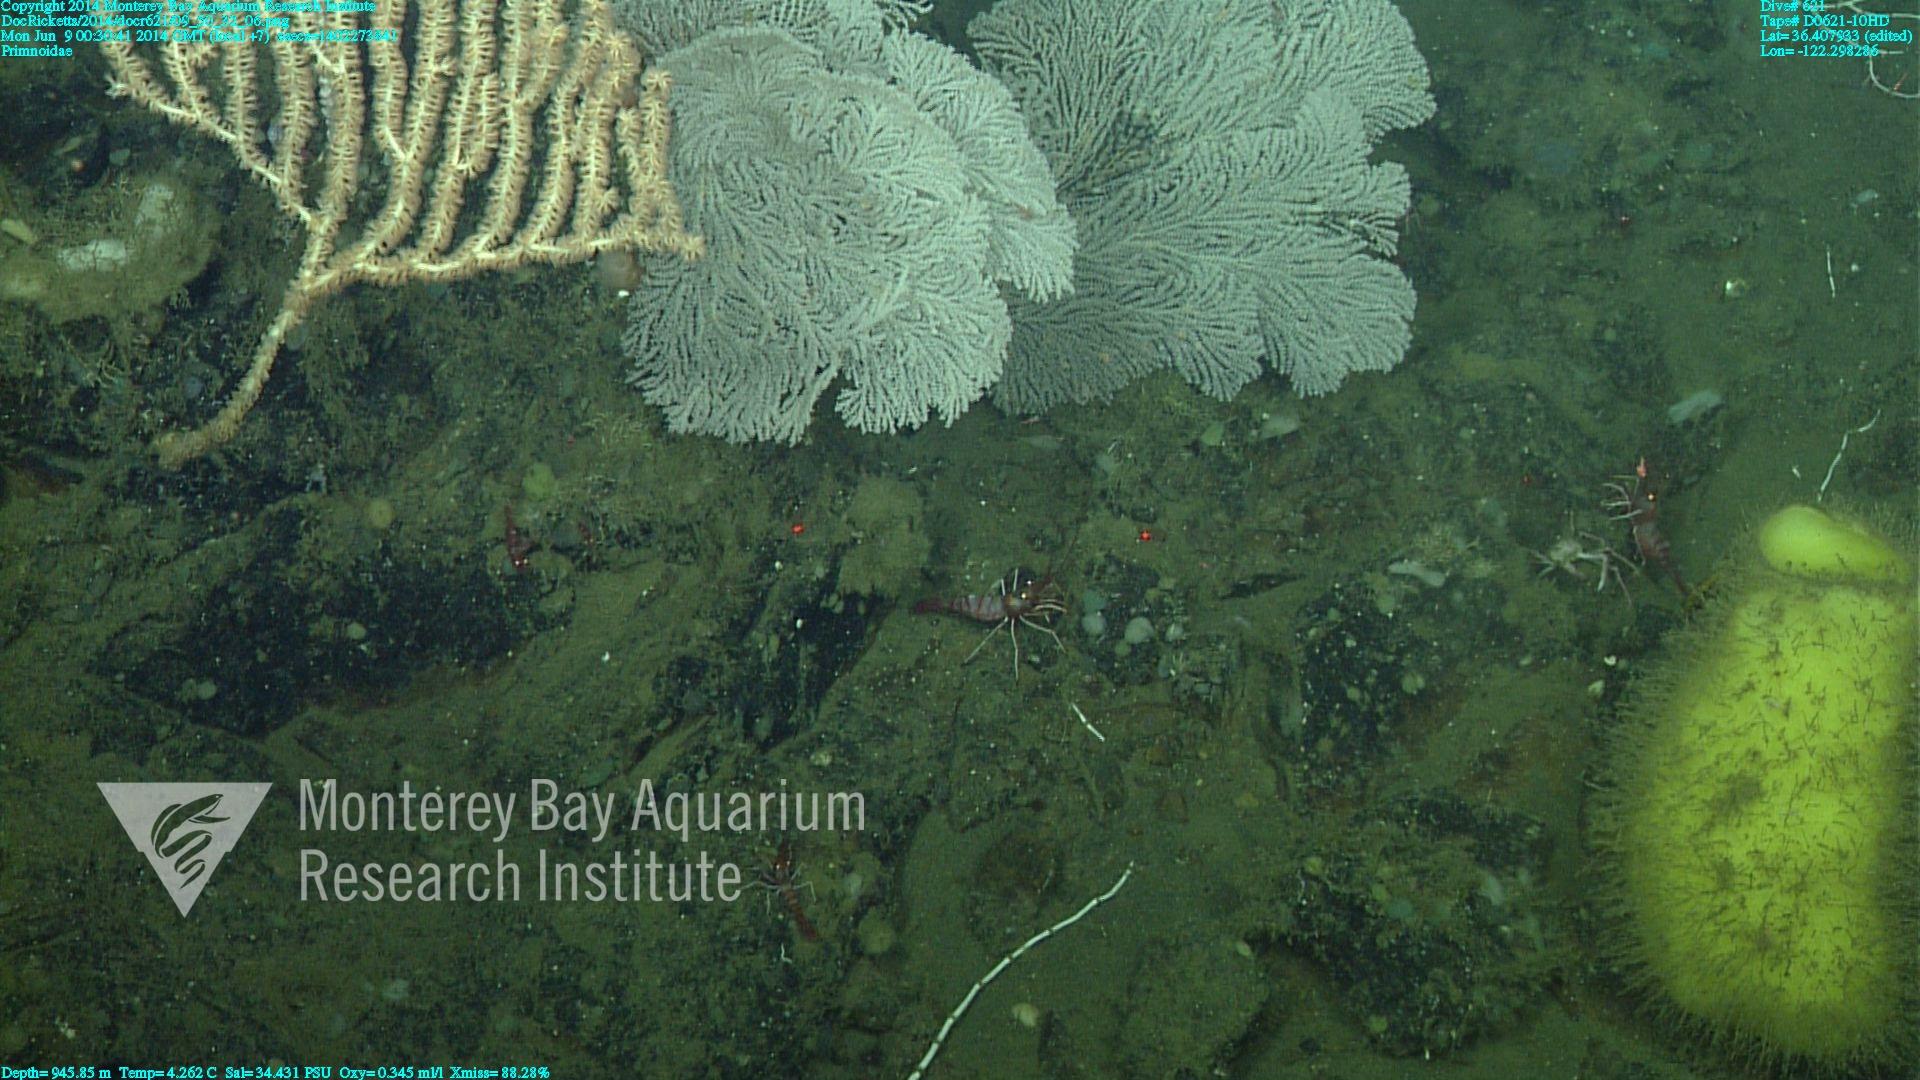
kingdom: Animalia
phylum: Cnidaria
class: Anthozoa
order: Scleralcyonacea
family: Primnoidae
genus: Parastenella
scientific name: Parastenella
